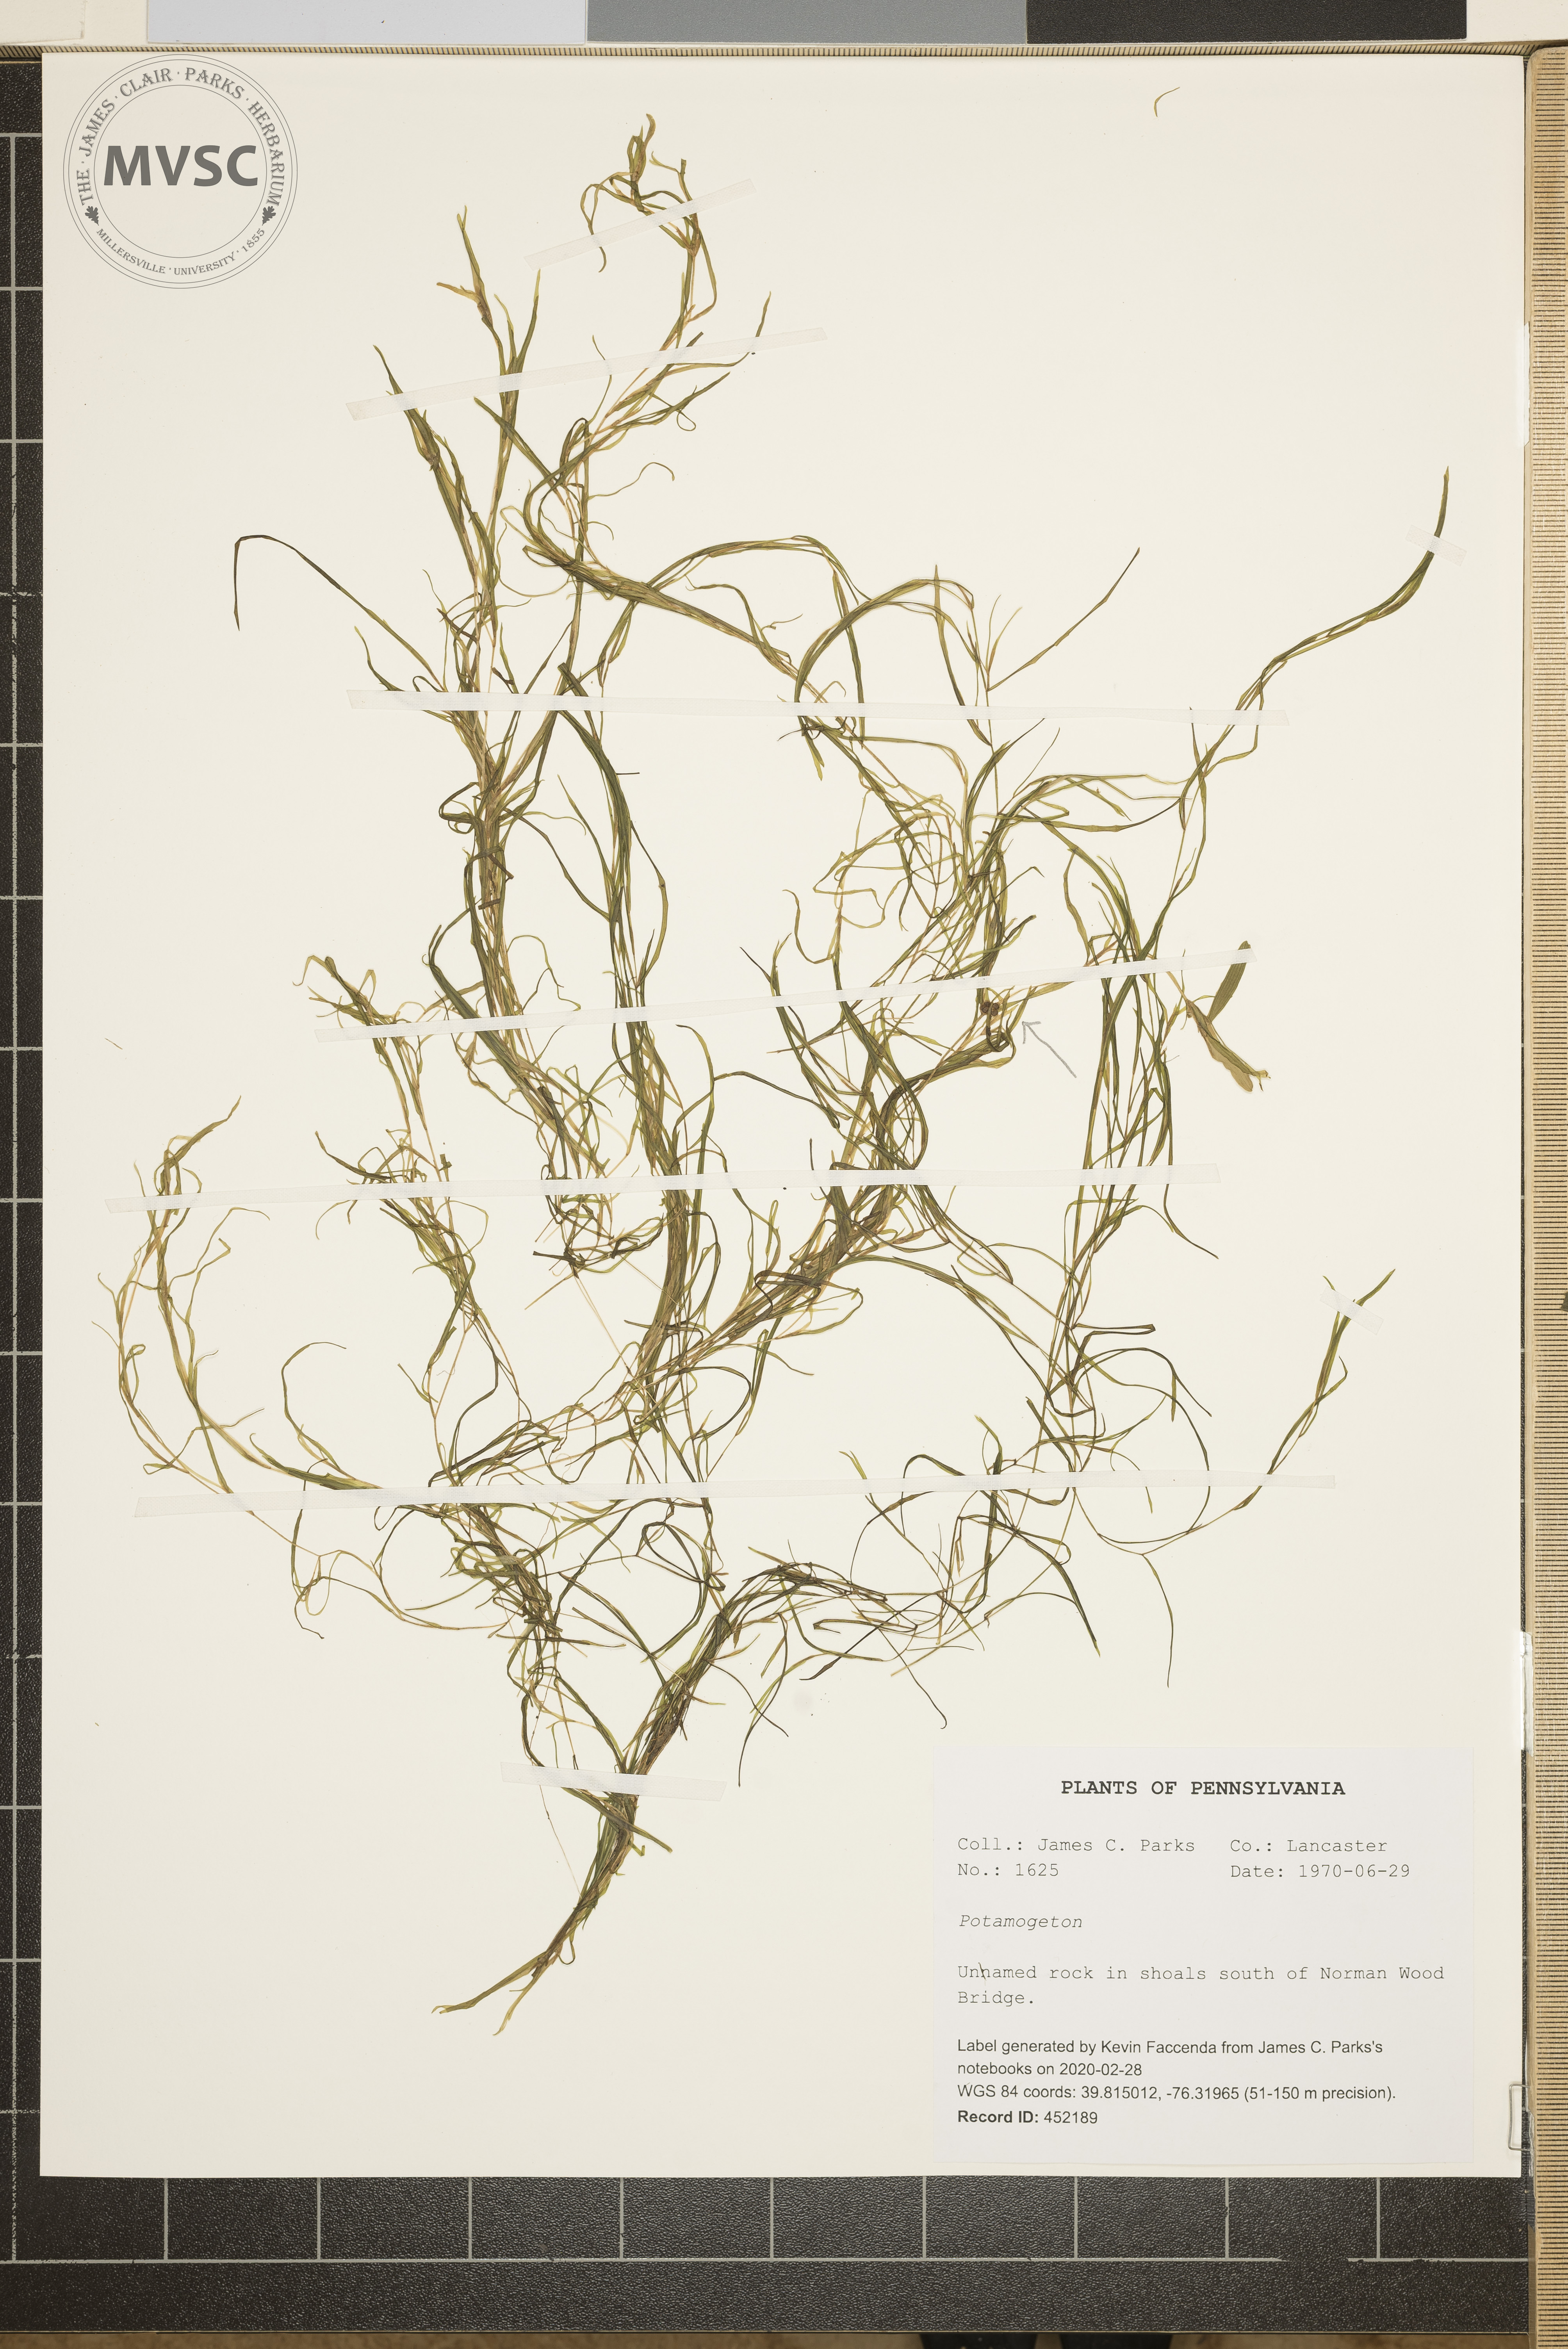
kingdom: Plantae
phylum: Tracheophyta
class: Liliopsida
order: Alismatales
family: Potamogetonaceae
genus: Potamogeton
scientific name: Potamogeton
